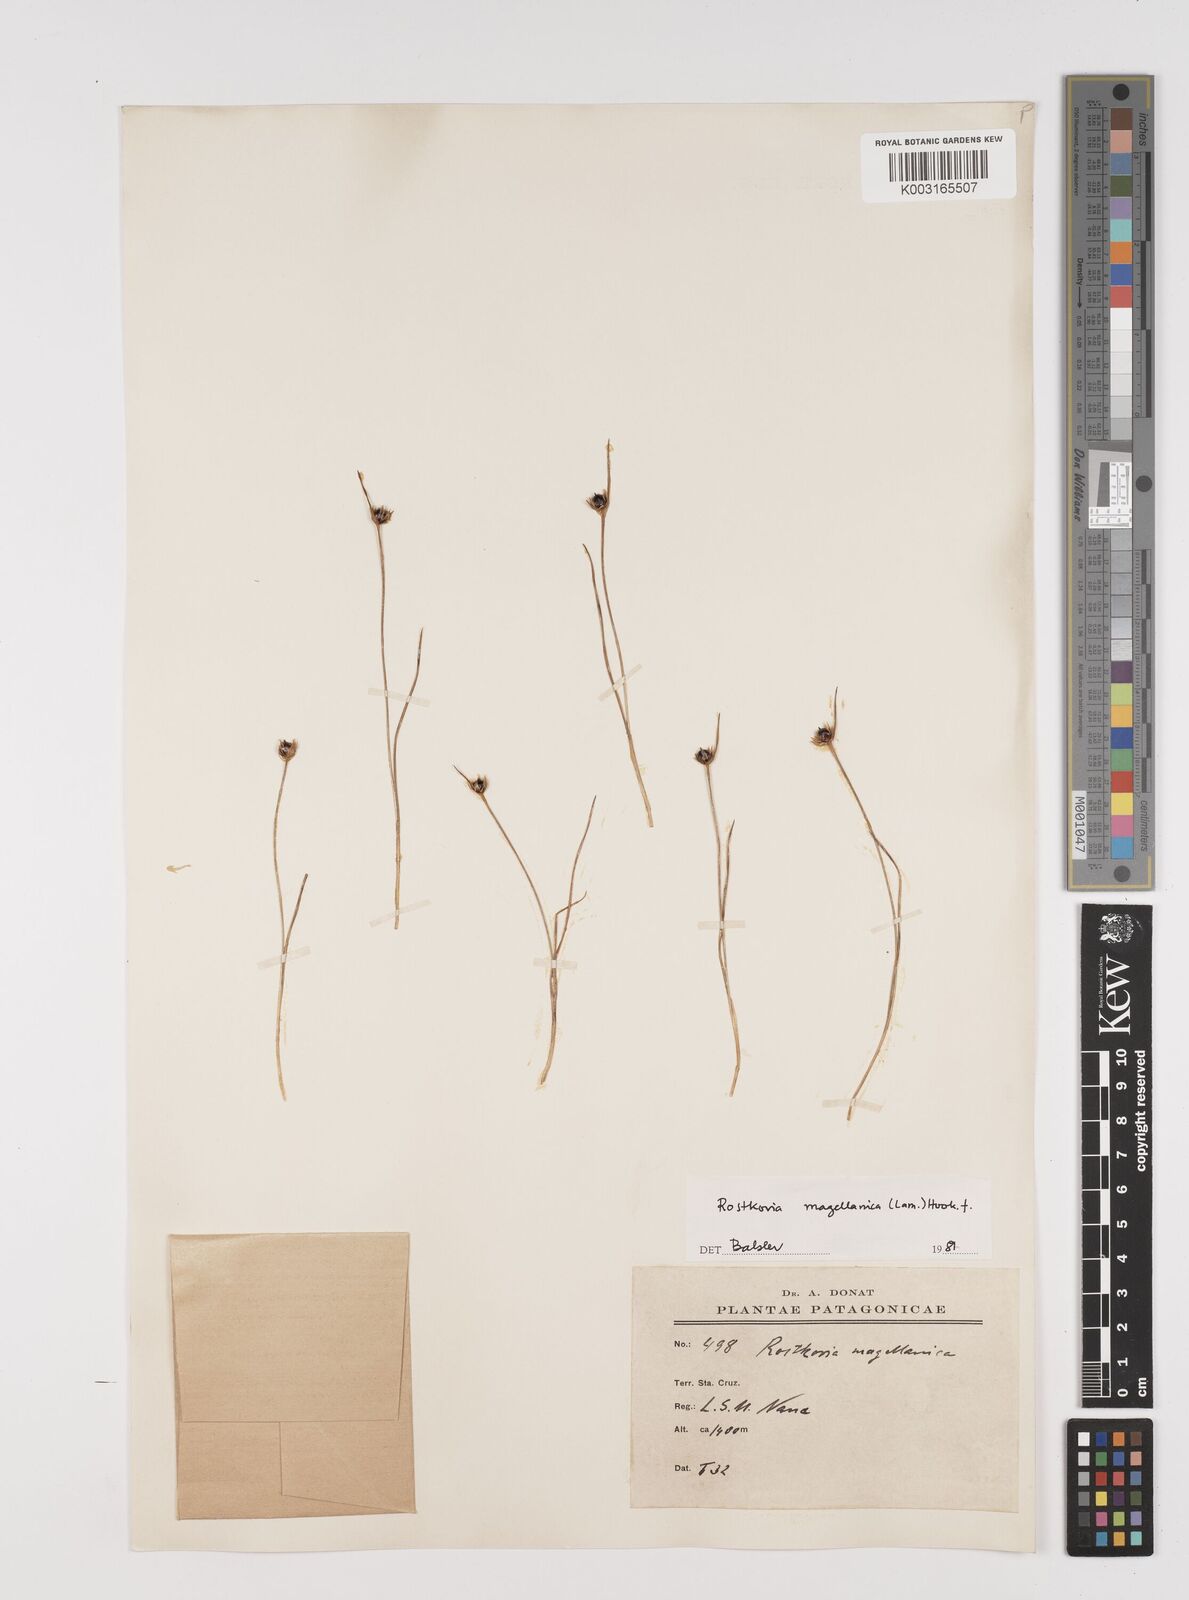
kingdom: Plantae
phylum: Tracheophyta
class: Liliopsida
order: Poales
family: Juncaceae
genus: Rostkovia
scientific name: Rostkovia magellanica
